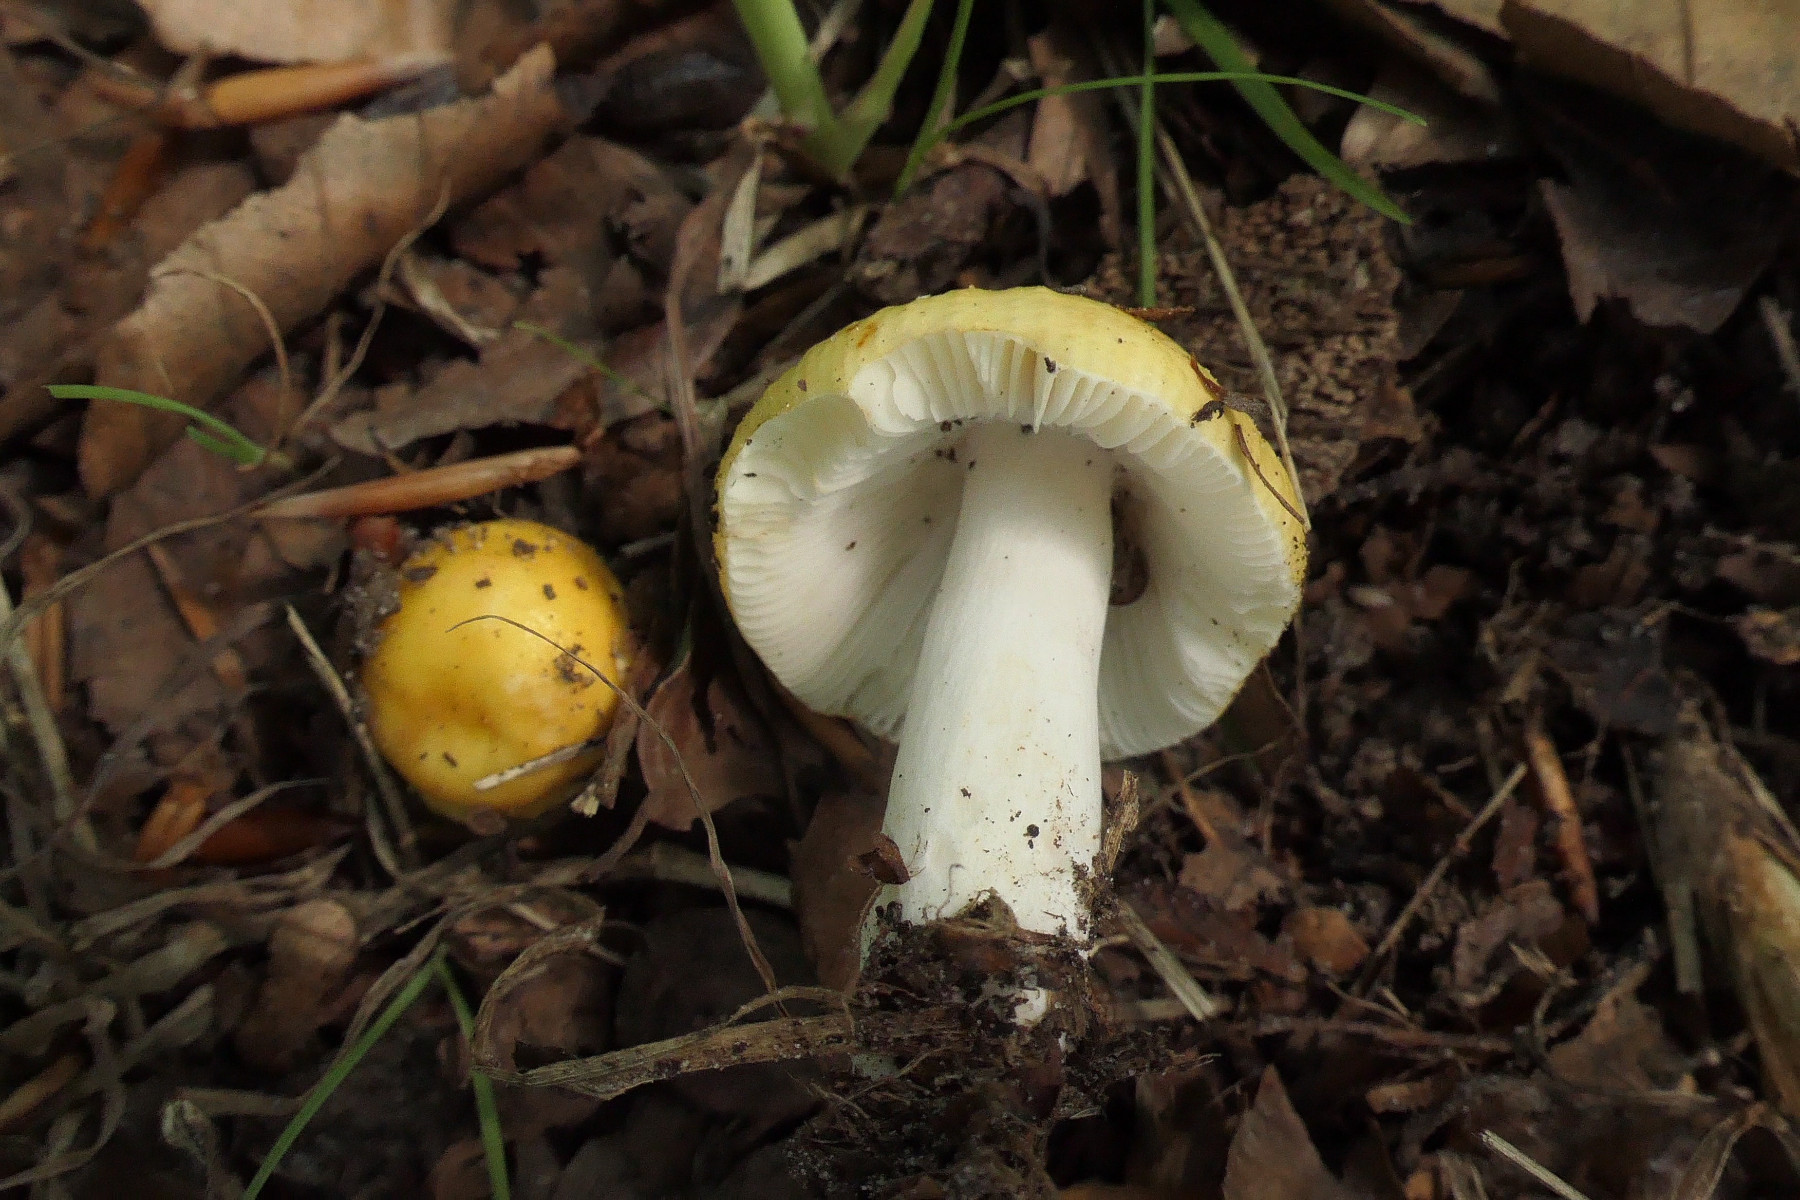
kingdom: Fungi
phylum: Basidiomycota
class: Agaricomycetes
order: Russulales
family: Russulaceae
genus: Russula
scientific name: Russula solaris
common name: sol-skørhat
